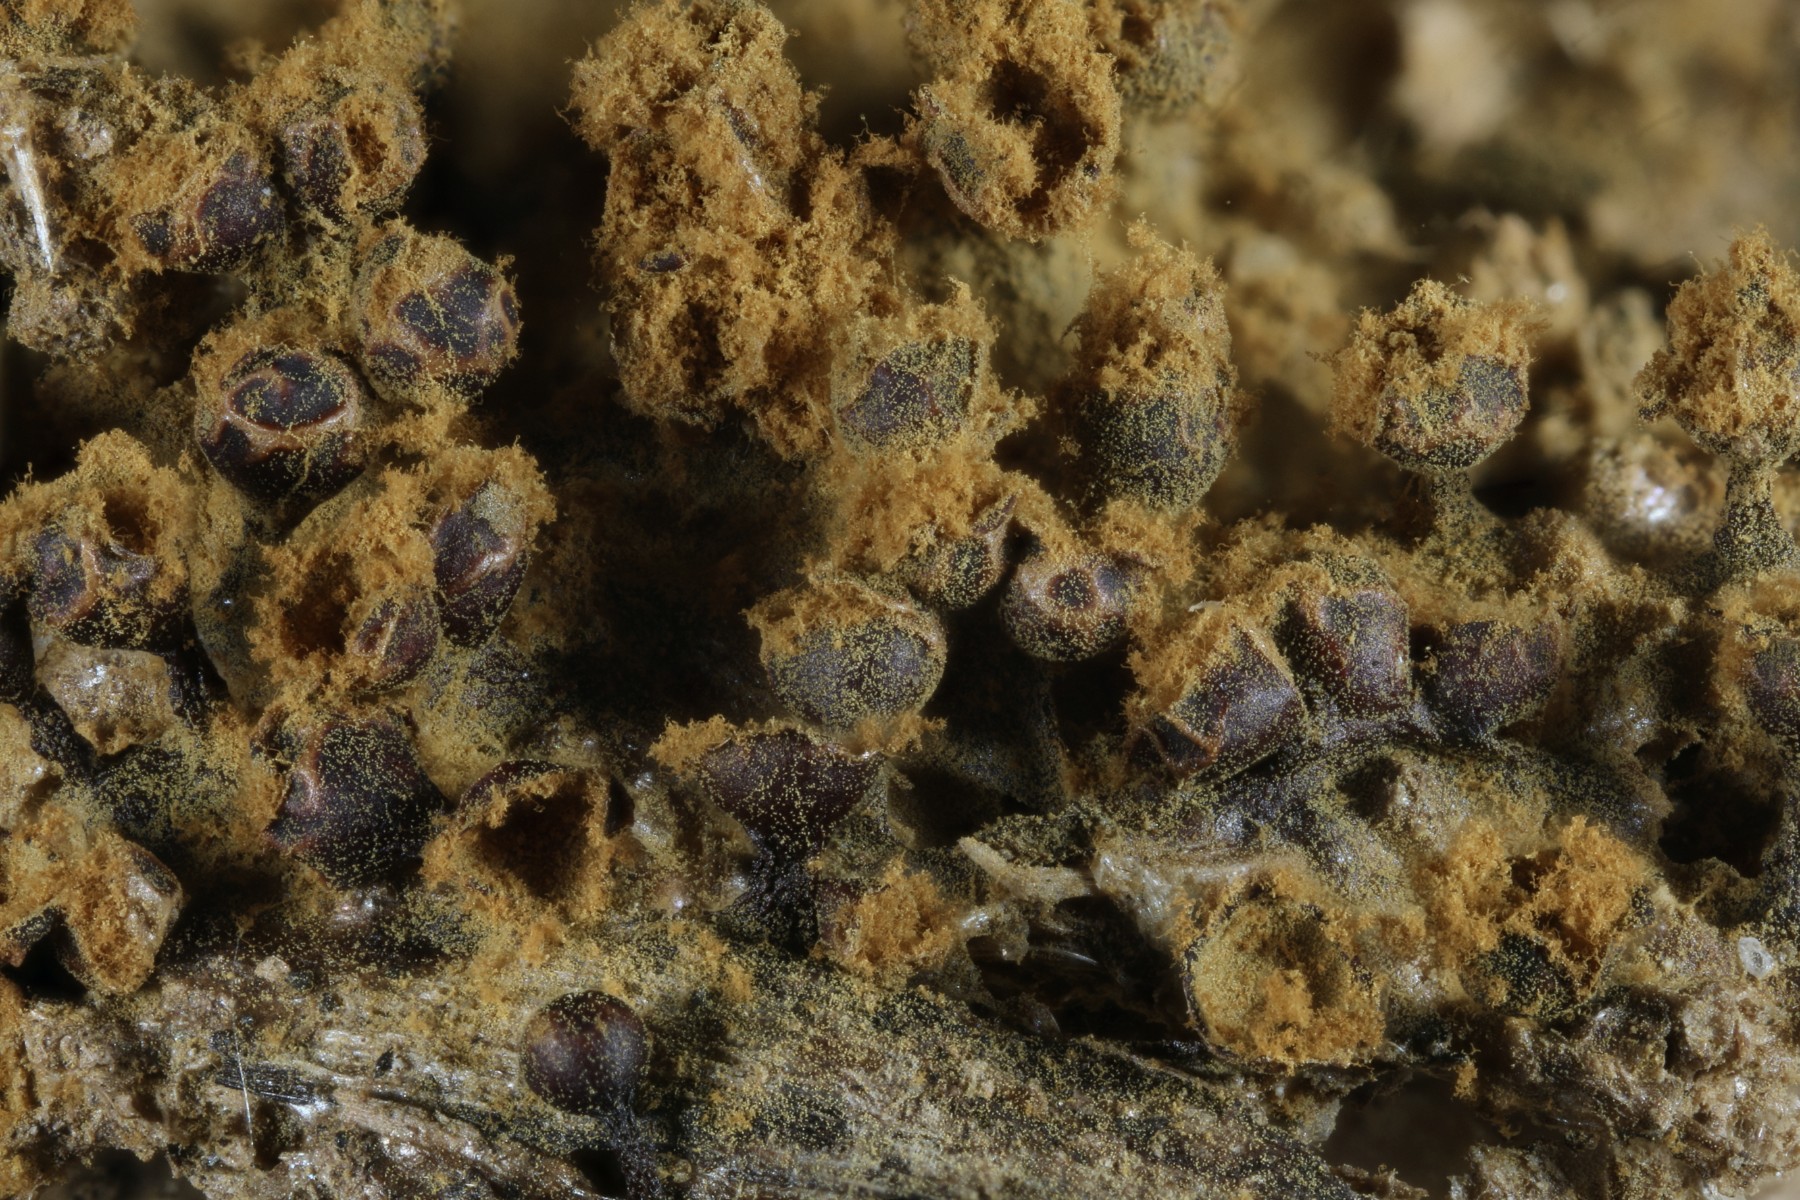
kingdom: Protozoa
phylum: Mycetozoa
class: Myxomycetes
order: Trichiales
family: Trichiaceae
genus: Trichia
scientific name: Trichia botrytis
